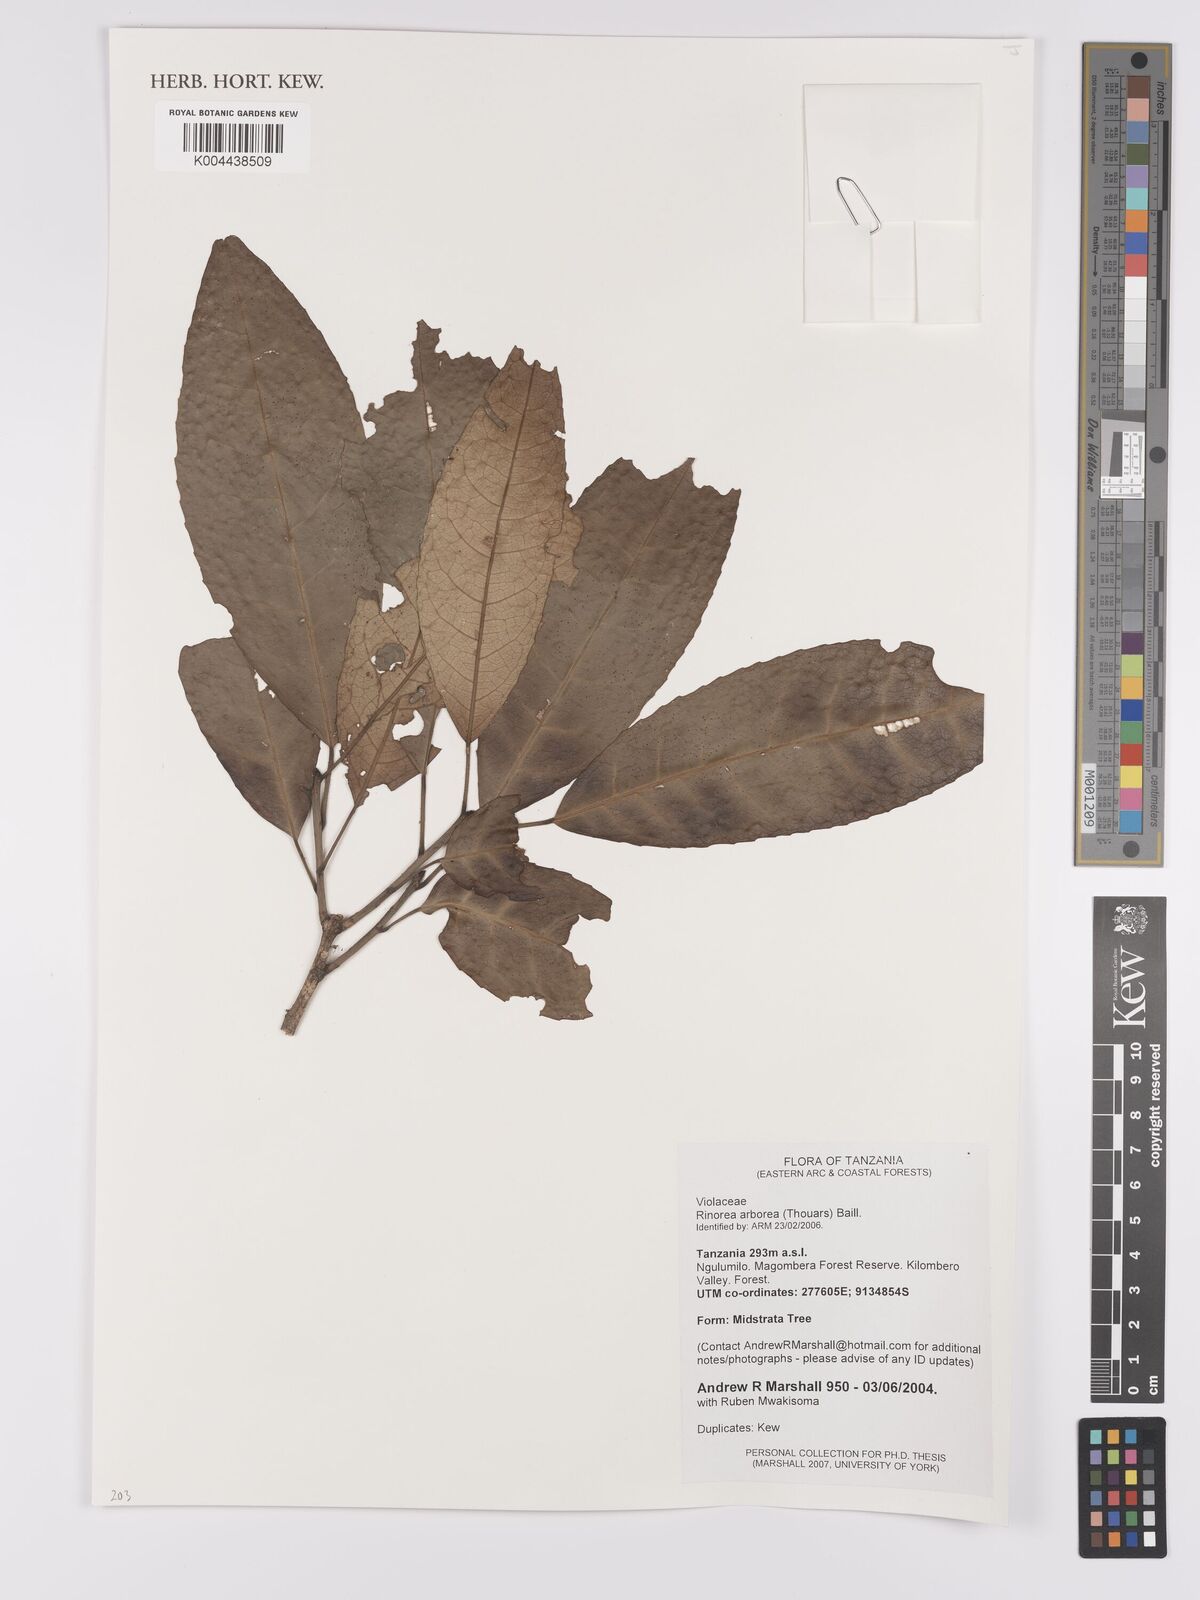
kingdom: Plantae
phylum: Tracheophyta
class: Magnoliopsida
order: Malpighiales
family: Violaceae
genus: Rinorea
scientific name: Rinorea arborea
